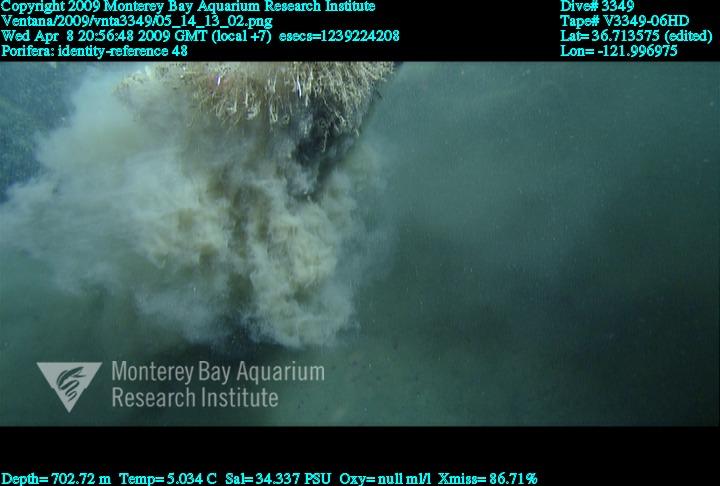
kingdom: Animalia
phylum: Porifera
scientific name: Porifera
